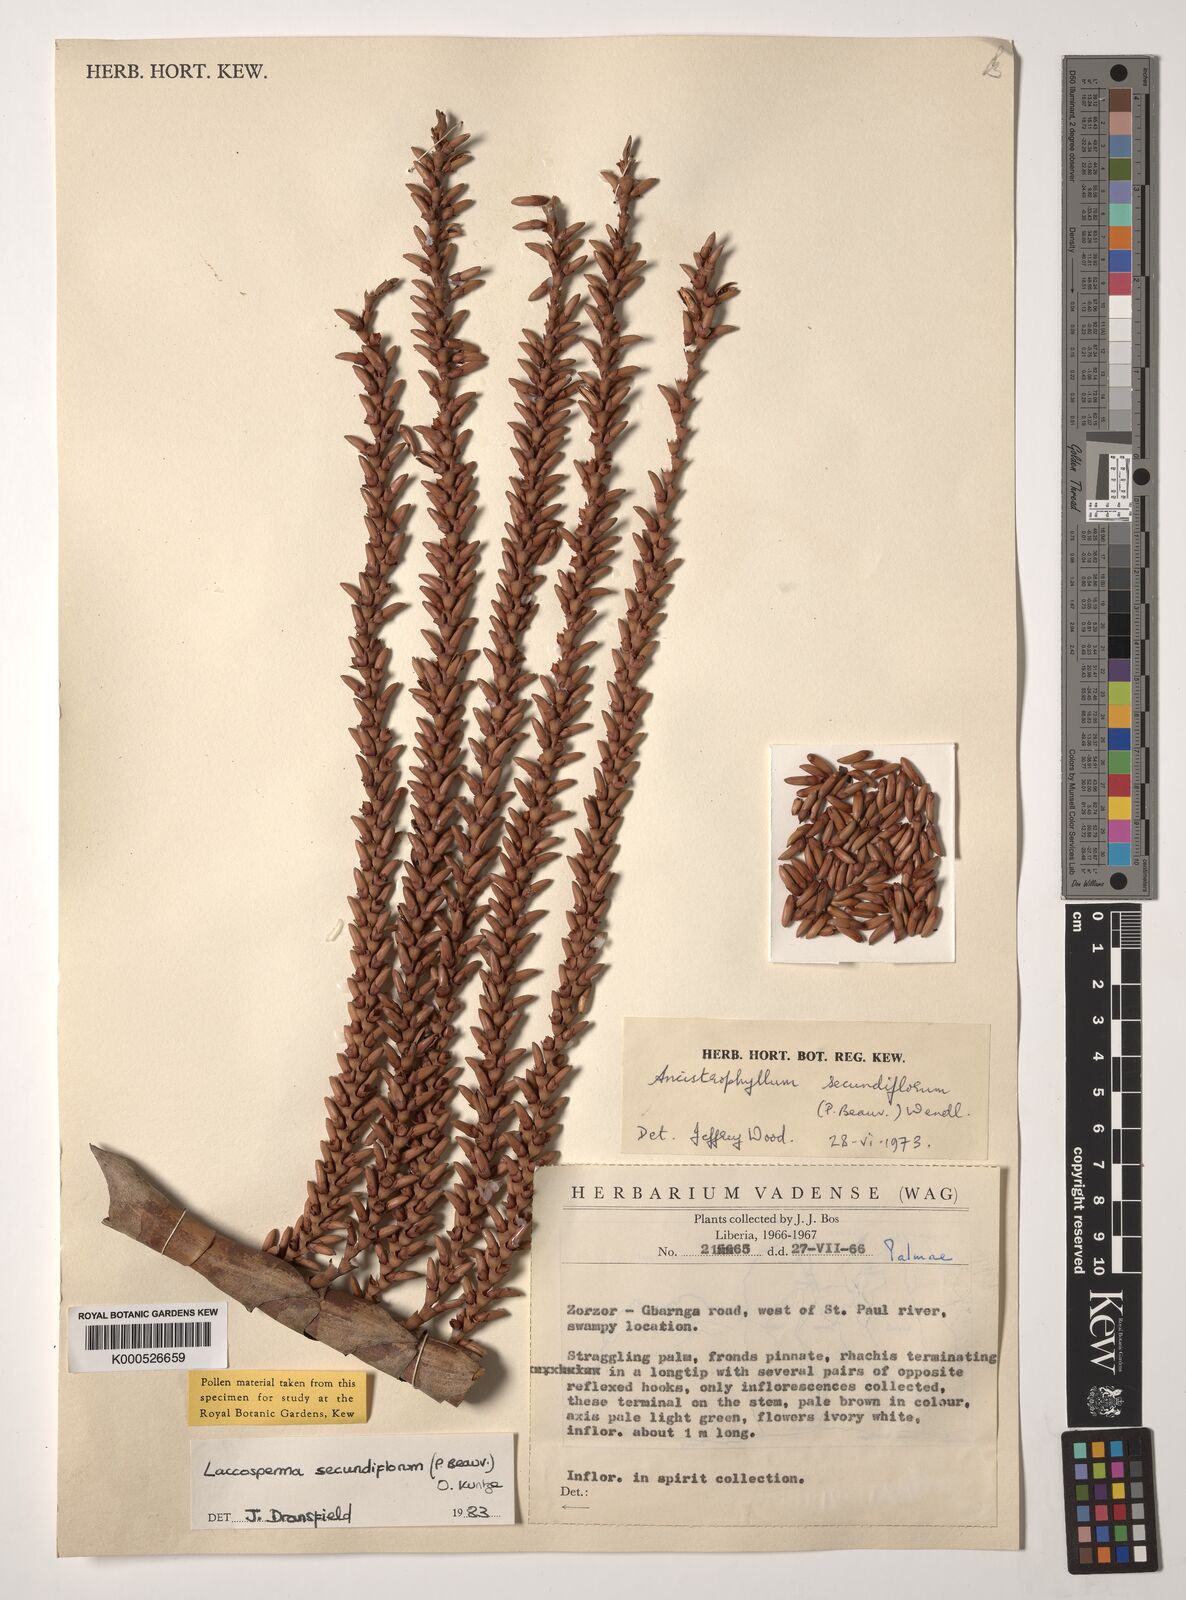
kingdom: Plantae
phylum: Tracheophyta
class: Liliopsida
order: Arecales
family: Arecaceae
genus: Laccosperma
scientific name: Laccosperma secundiflorum
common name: Rattan
